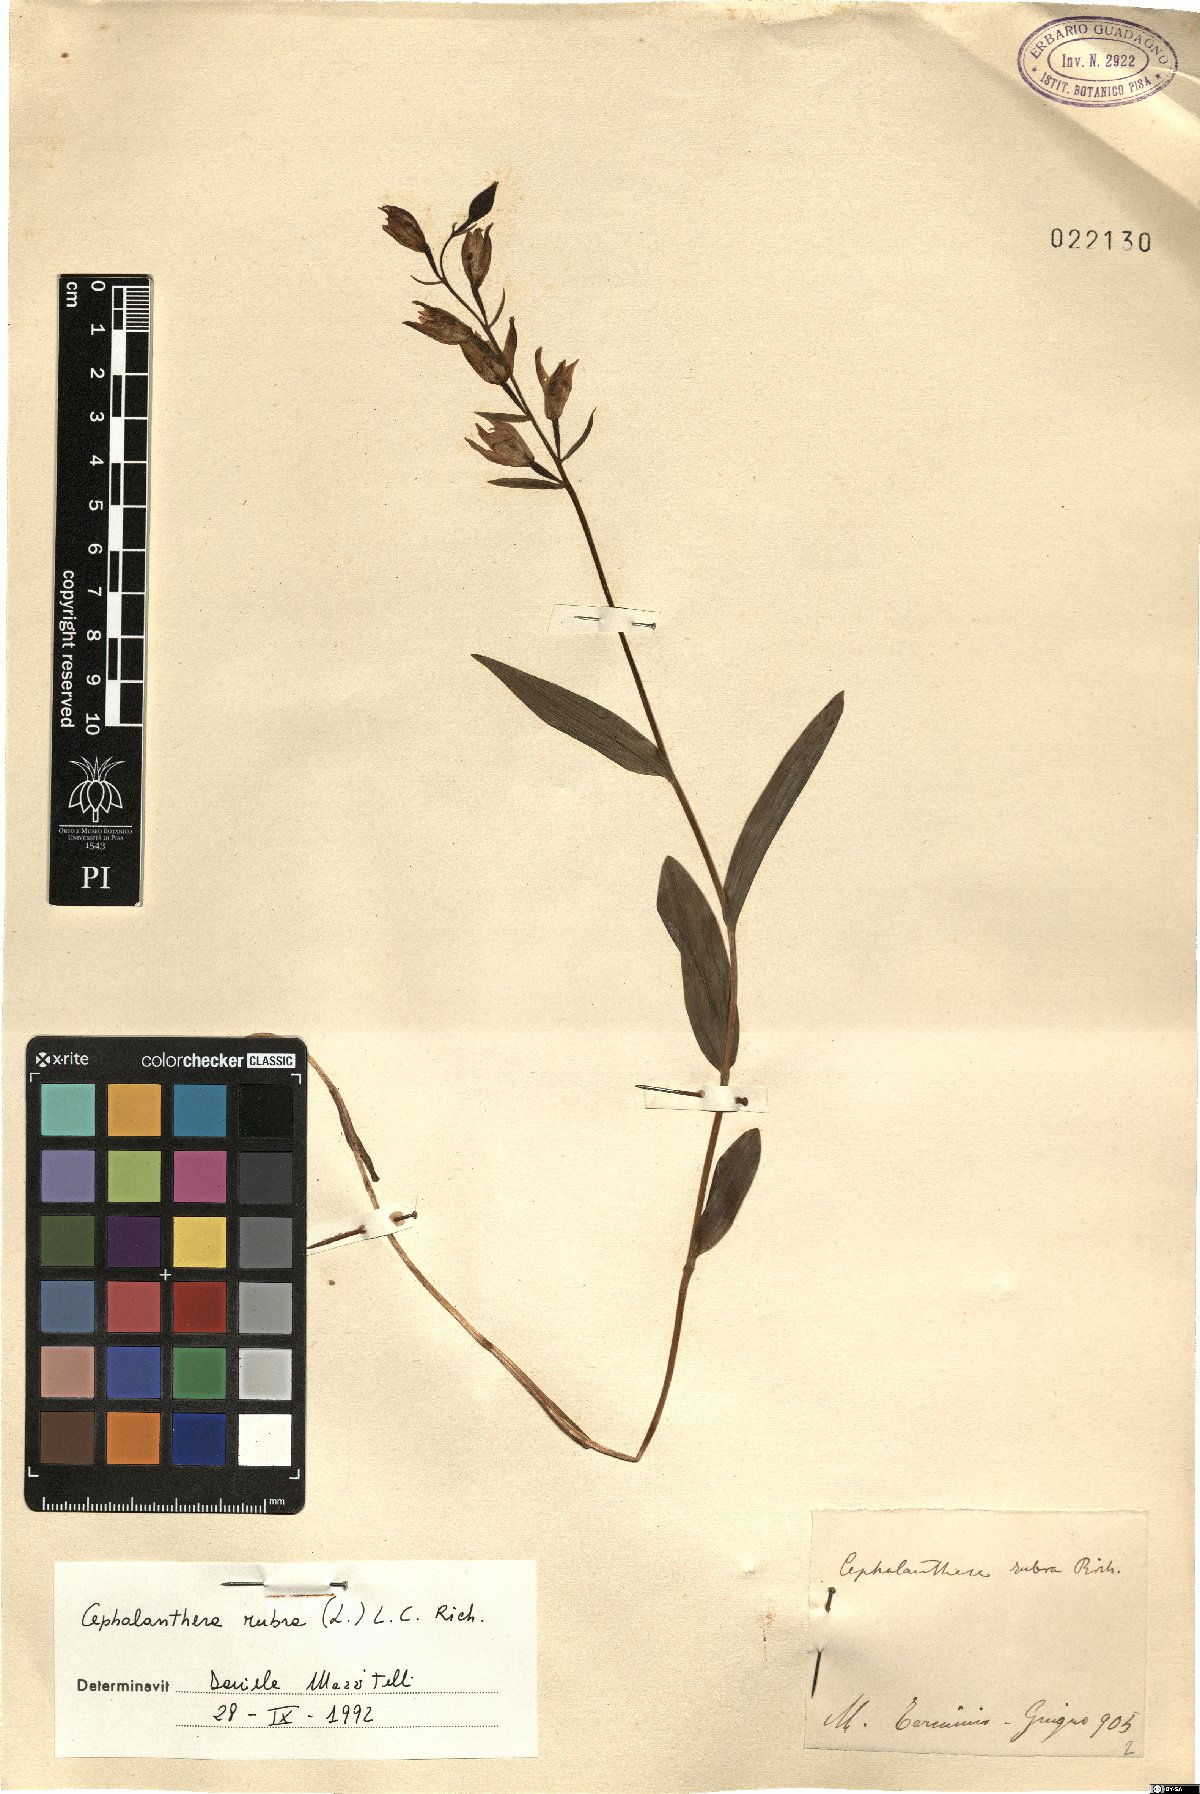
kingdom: Plantae
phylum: Tracheophyta
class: Liliopsida
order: Asparagales
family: Orchidaceae
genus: Cephalanthera
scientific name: Cephalanthera rubra
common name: Red helleborine
